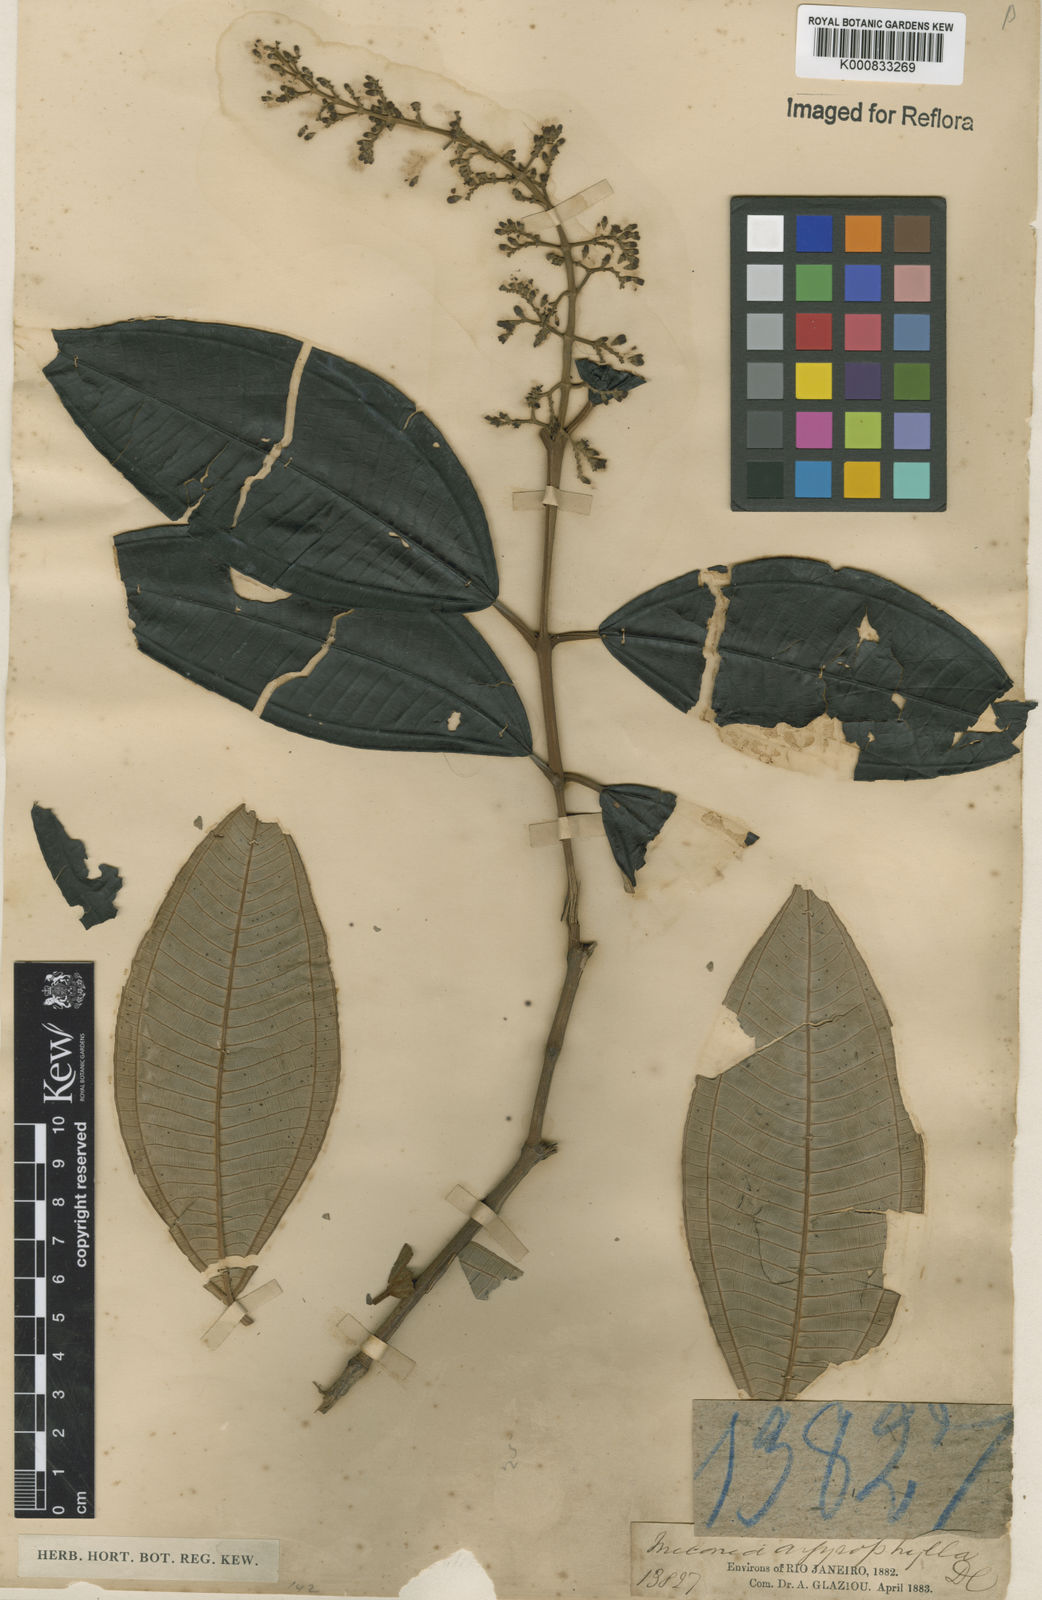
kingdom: Plantae
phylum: Tracheophyta
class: Magnoliopsida
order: Myrtales
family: Melastomataceae
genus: Miconia
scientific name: Miconia argyrophylla
